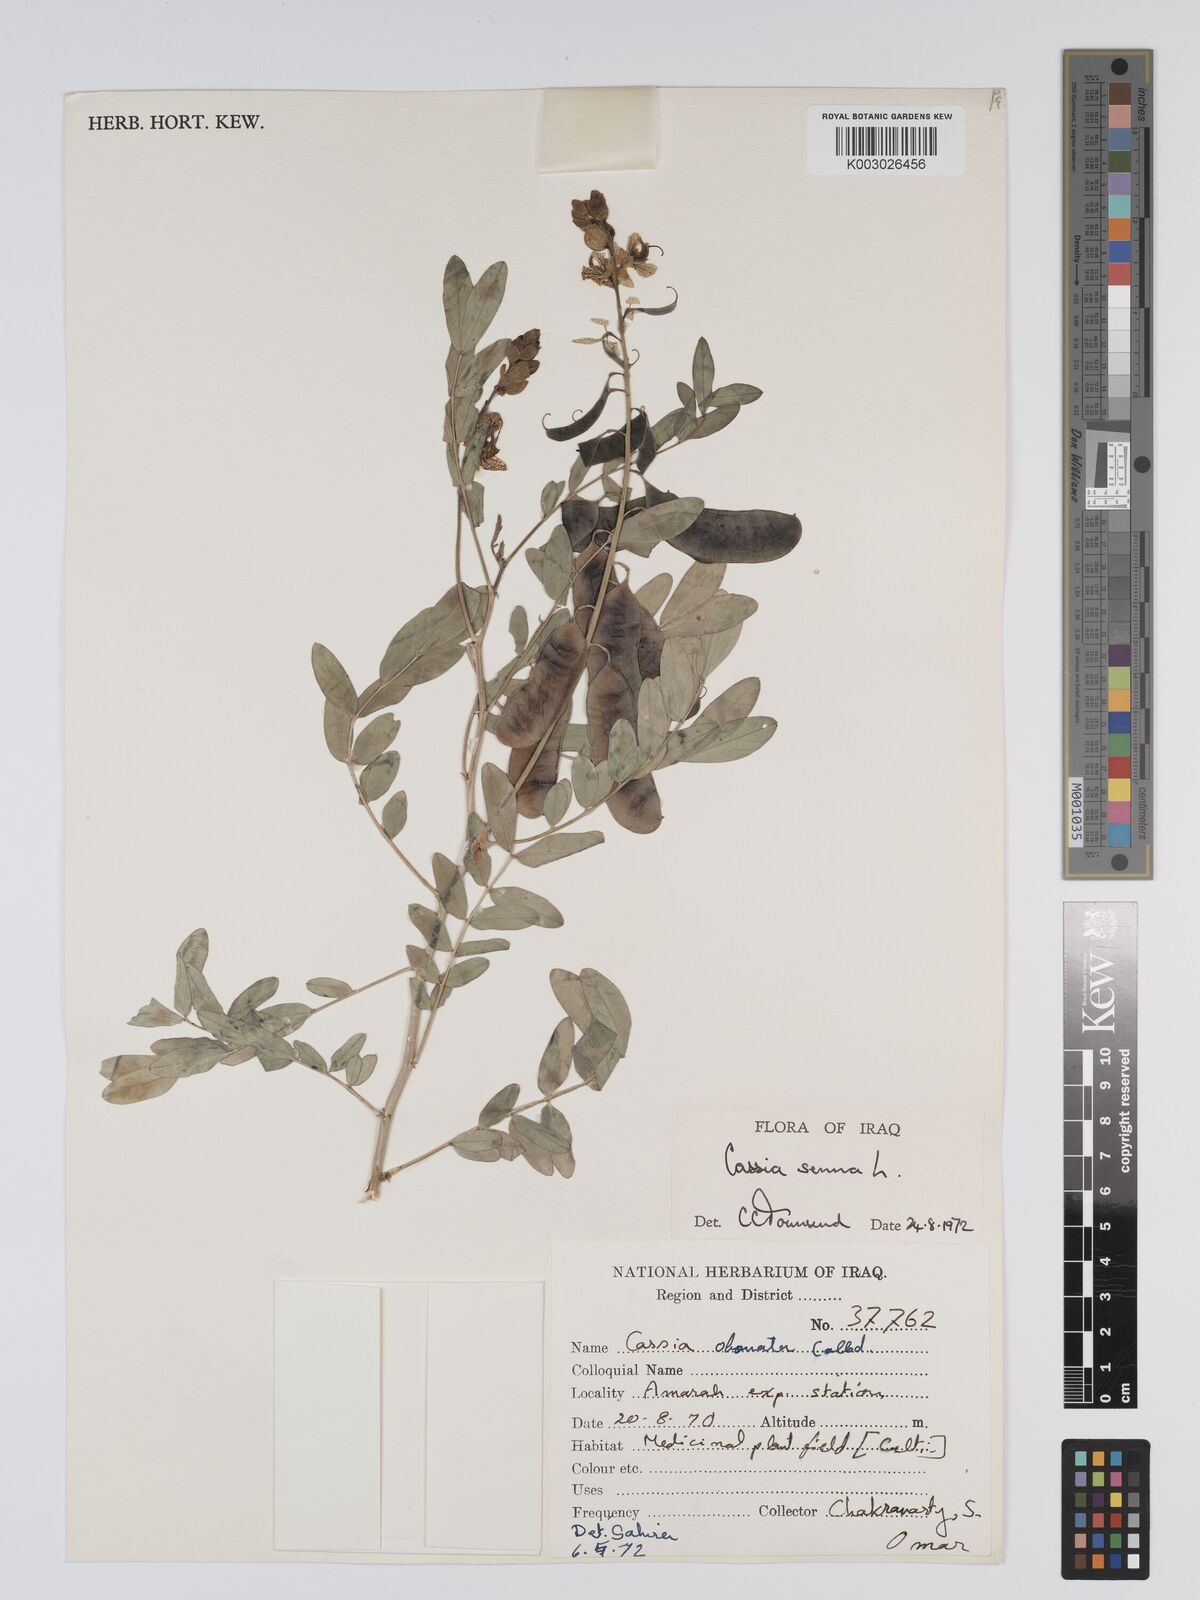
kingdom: Plantae
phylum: Tracheophyta
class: Magnoliopsida
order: Fabales
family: Fabaceae
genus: Senna
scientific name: Senna alexandrina
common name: True senna
